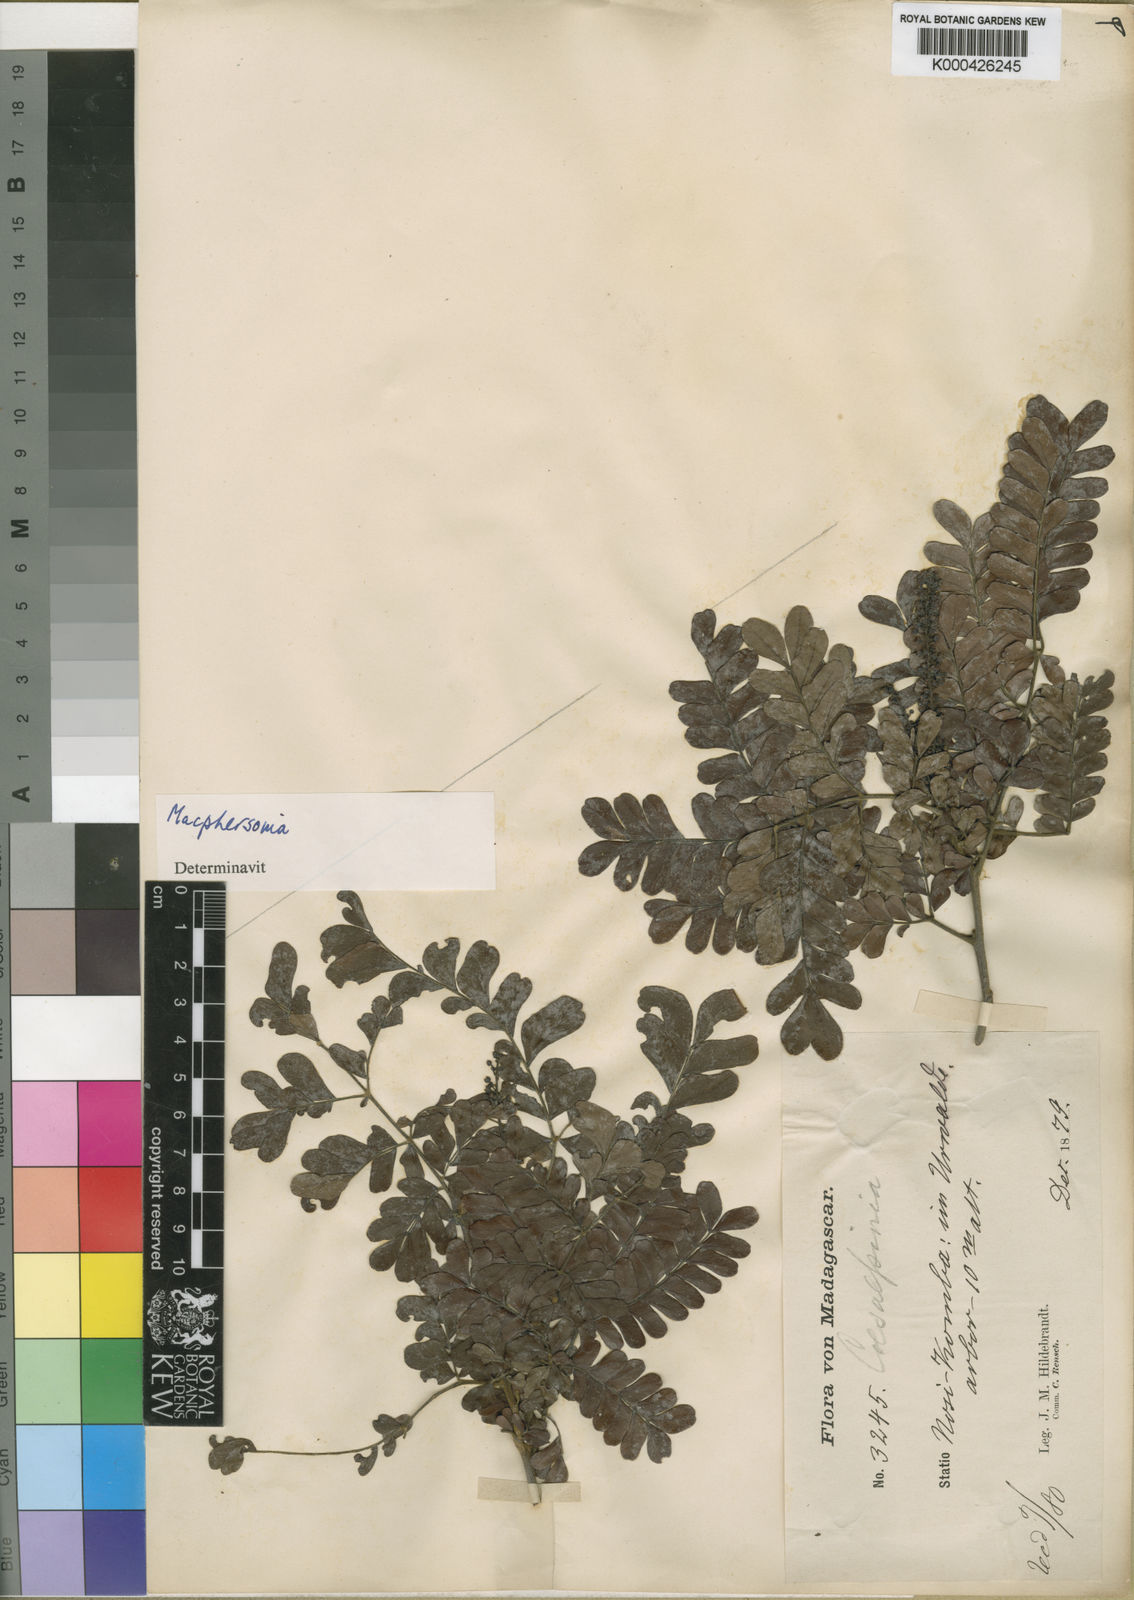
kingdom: Plantae
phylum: Tracheophyta
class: Magnoliopsida
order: Sapindales
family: Sapindaceae
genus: Macphersonia
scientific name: Macphersonia gracilis
